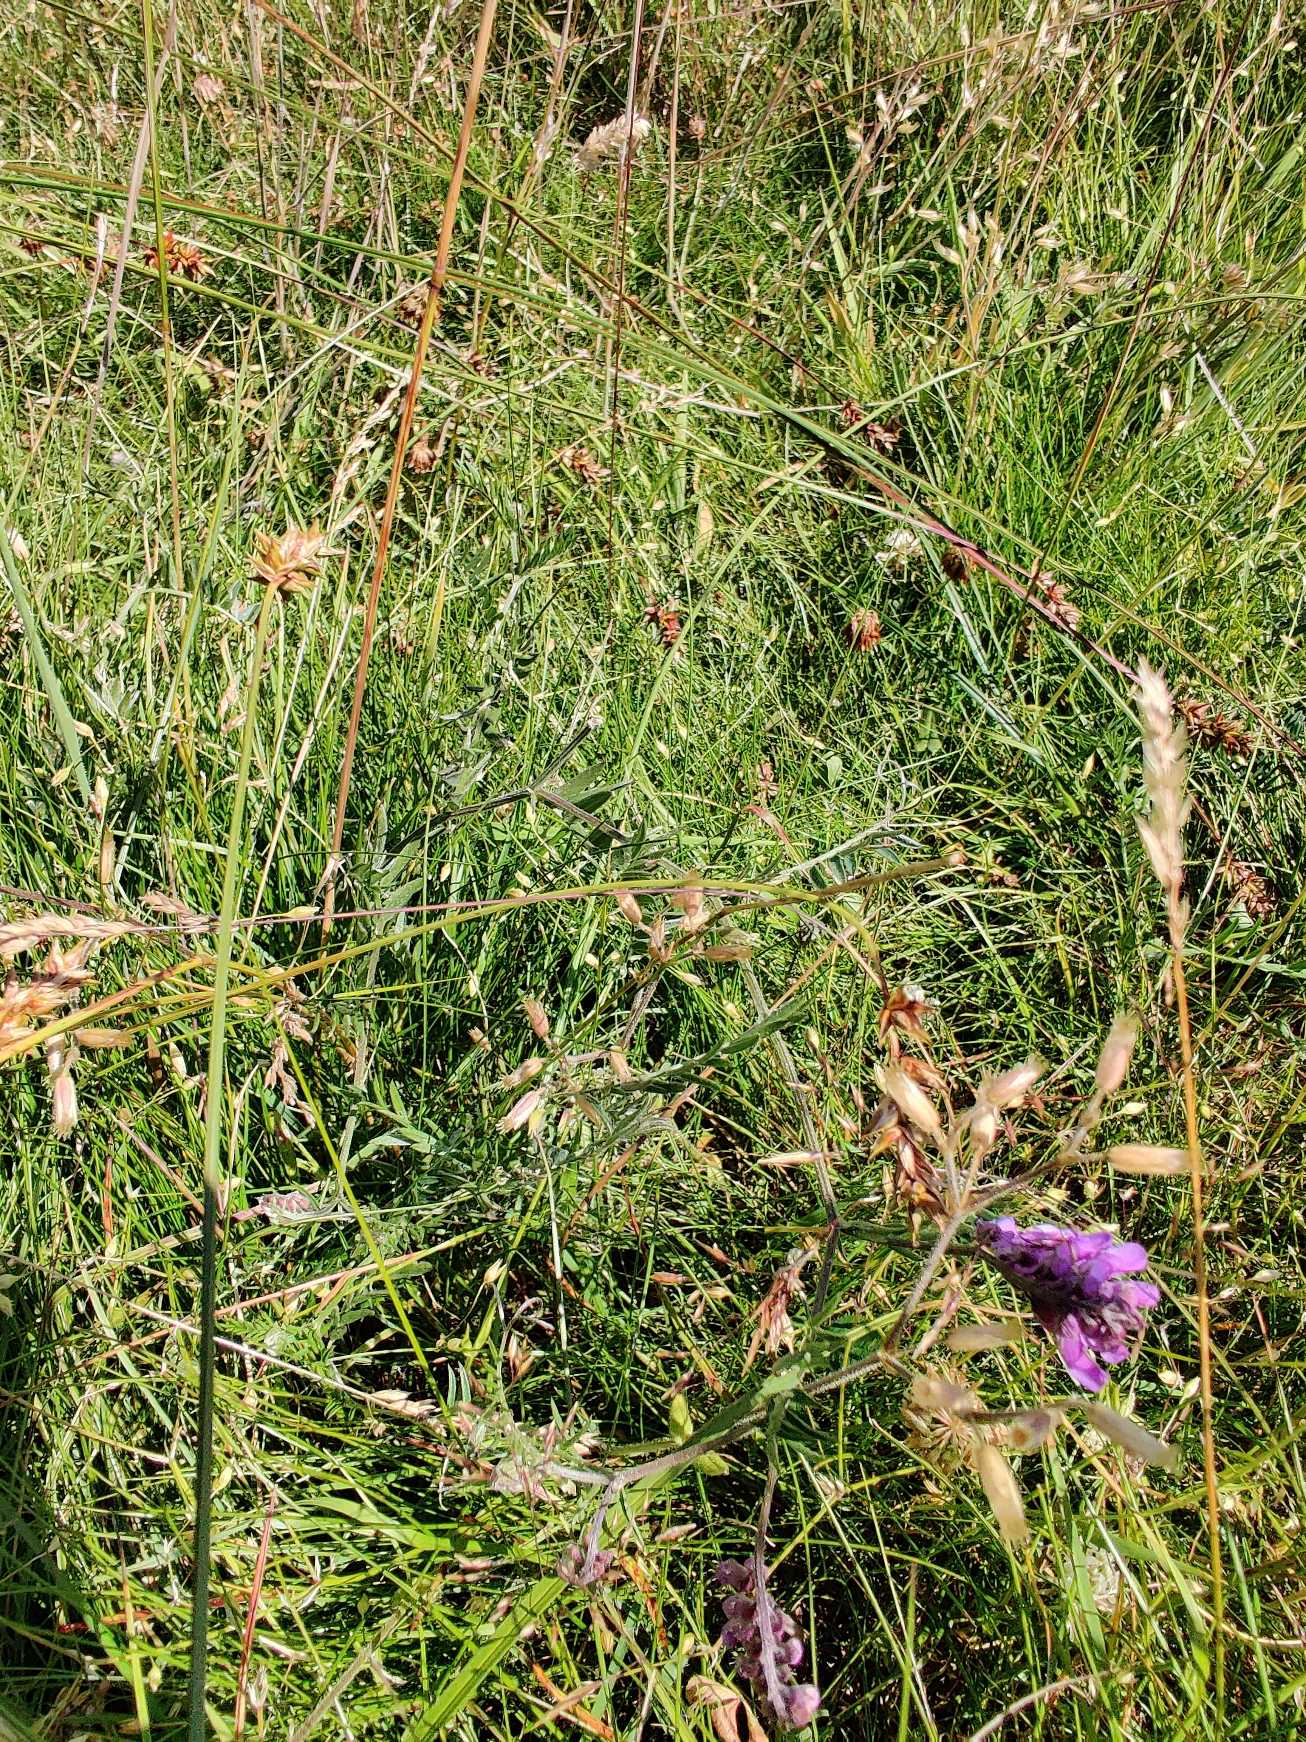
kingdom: Plantae
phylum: Tracheophyta
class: Magnoliopsida
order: Fabales
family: Fabaceae
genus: Vicia
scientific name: Vicia cracca
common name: Muse-vikke
